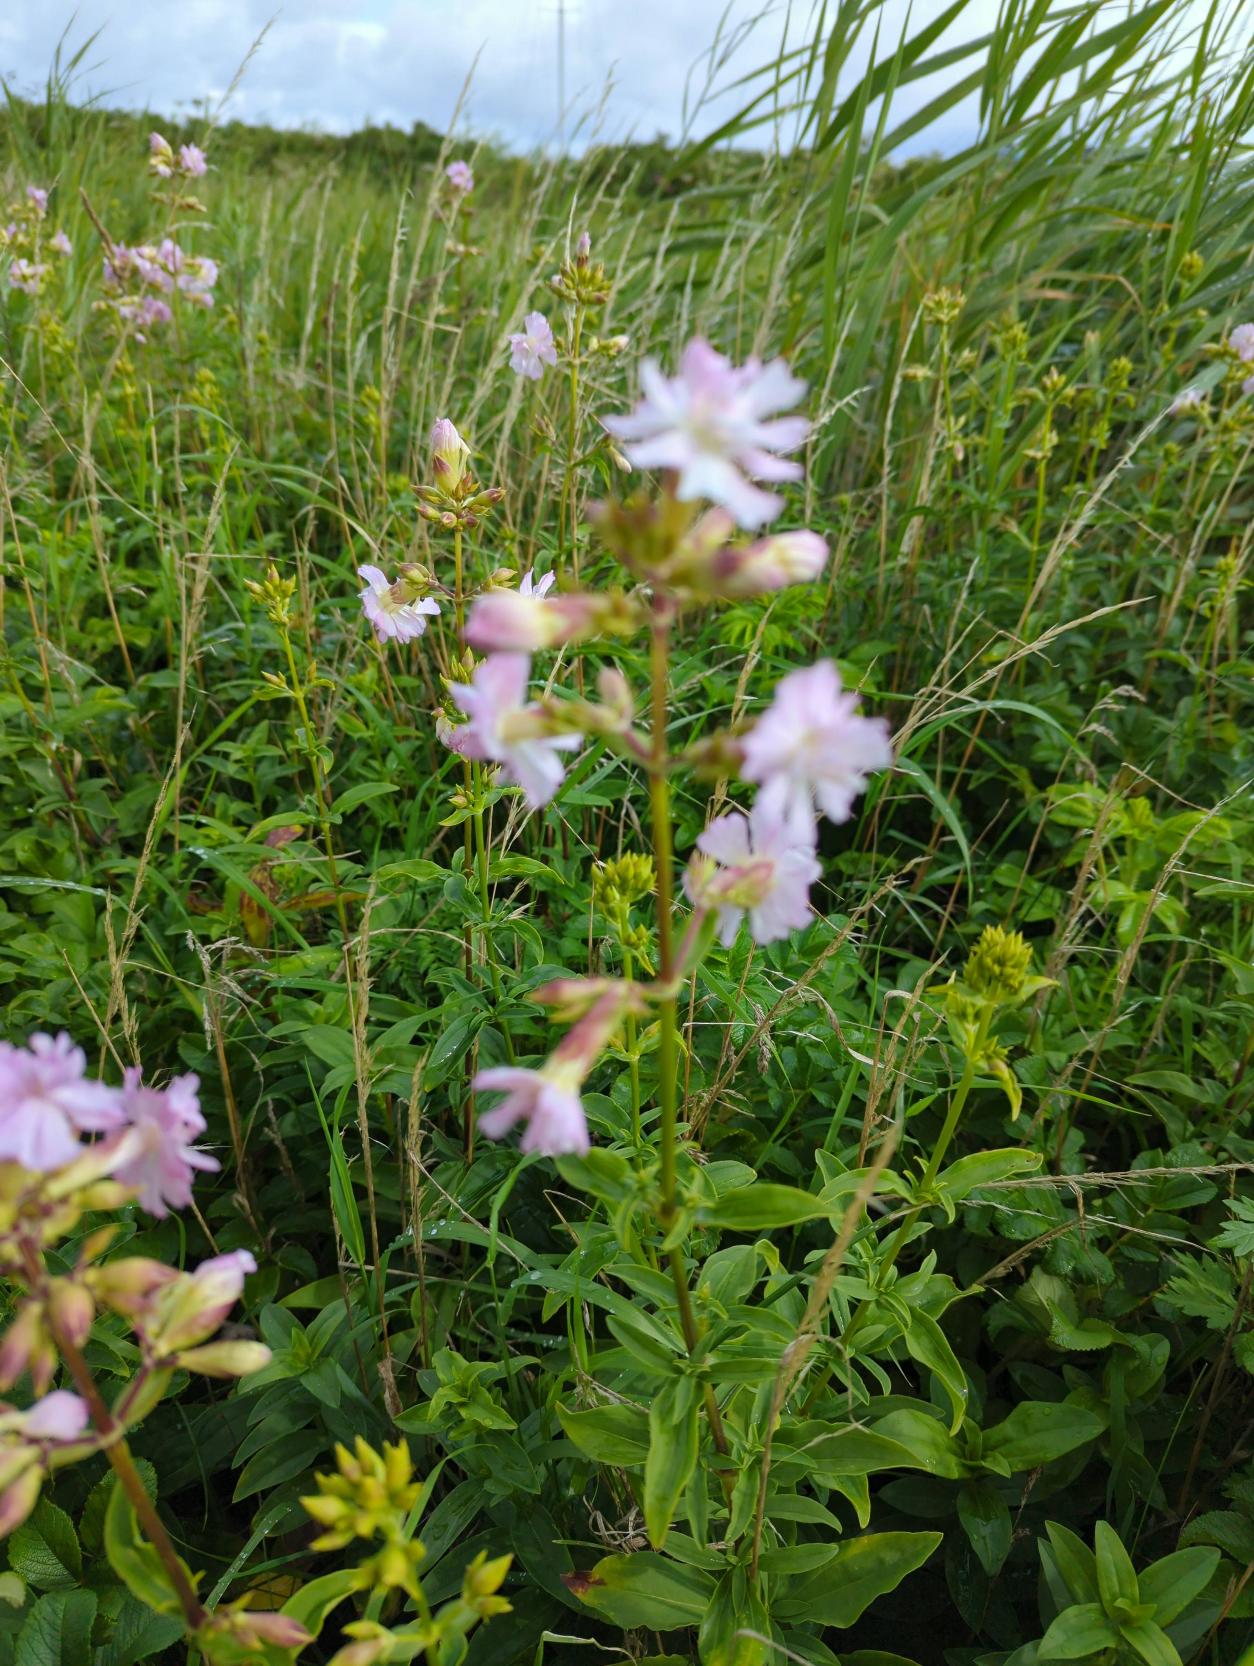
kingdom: Plantae
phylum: Tracheophyta
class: Magnoliopsida
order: Caryophyllales
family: Caryophyllaceae
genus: Saponaria
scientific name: Saponaria officinalis
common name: Sæbeurt
